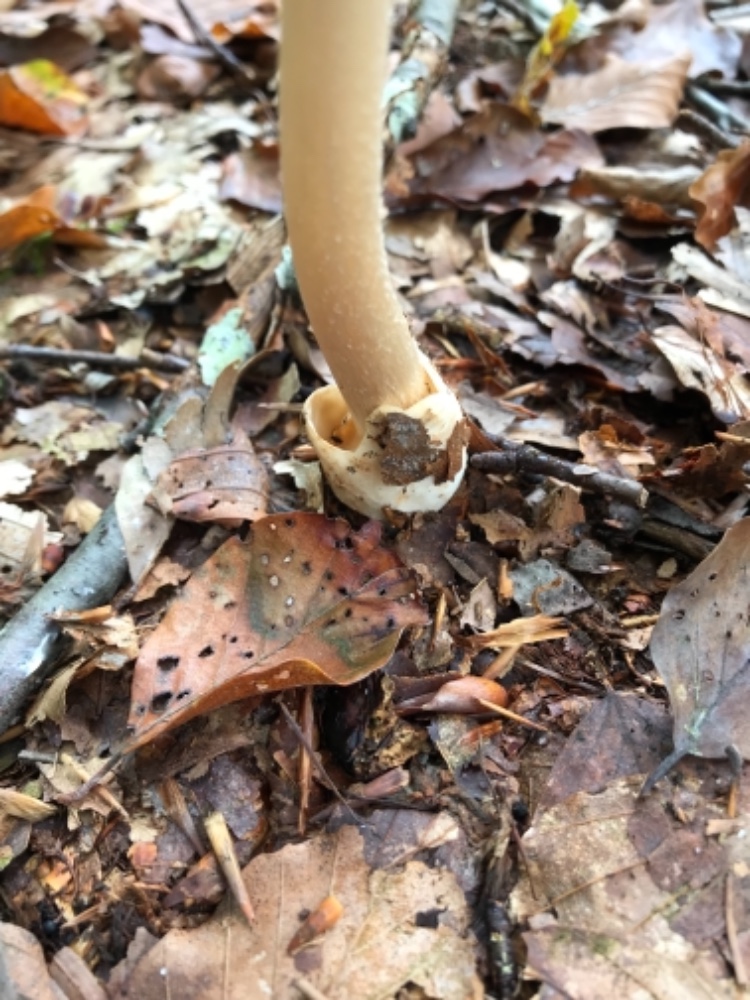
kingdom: Fungi
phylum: Basidiomycota
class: Agaricomycetes
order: Agaricales
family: Amanitaceae
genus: Amanita
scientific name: Amanita fulva
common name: brun kam-fluesvamp
